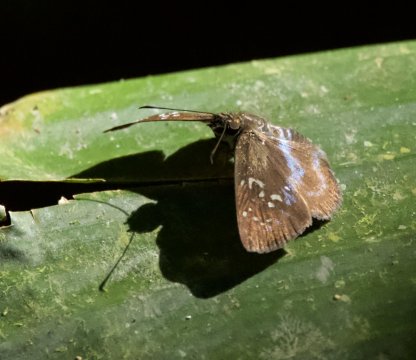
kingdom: Animalia
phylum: Arthropoda
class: Insecta
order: Lepidoptera
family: Hesperiidae
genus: Quadrus
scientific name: Quadrus contubernalis
